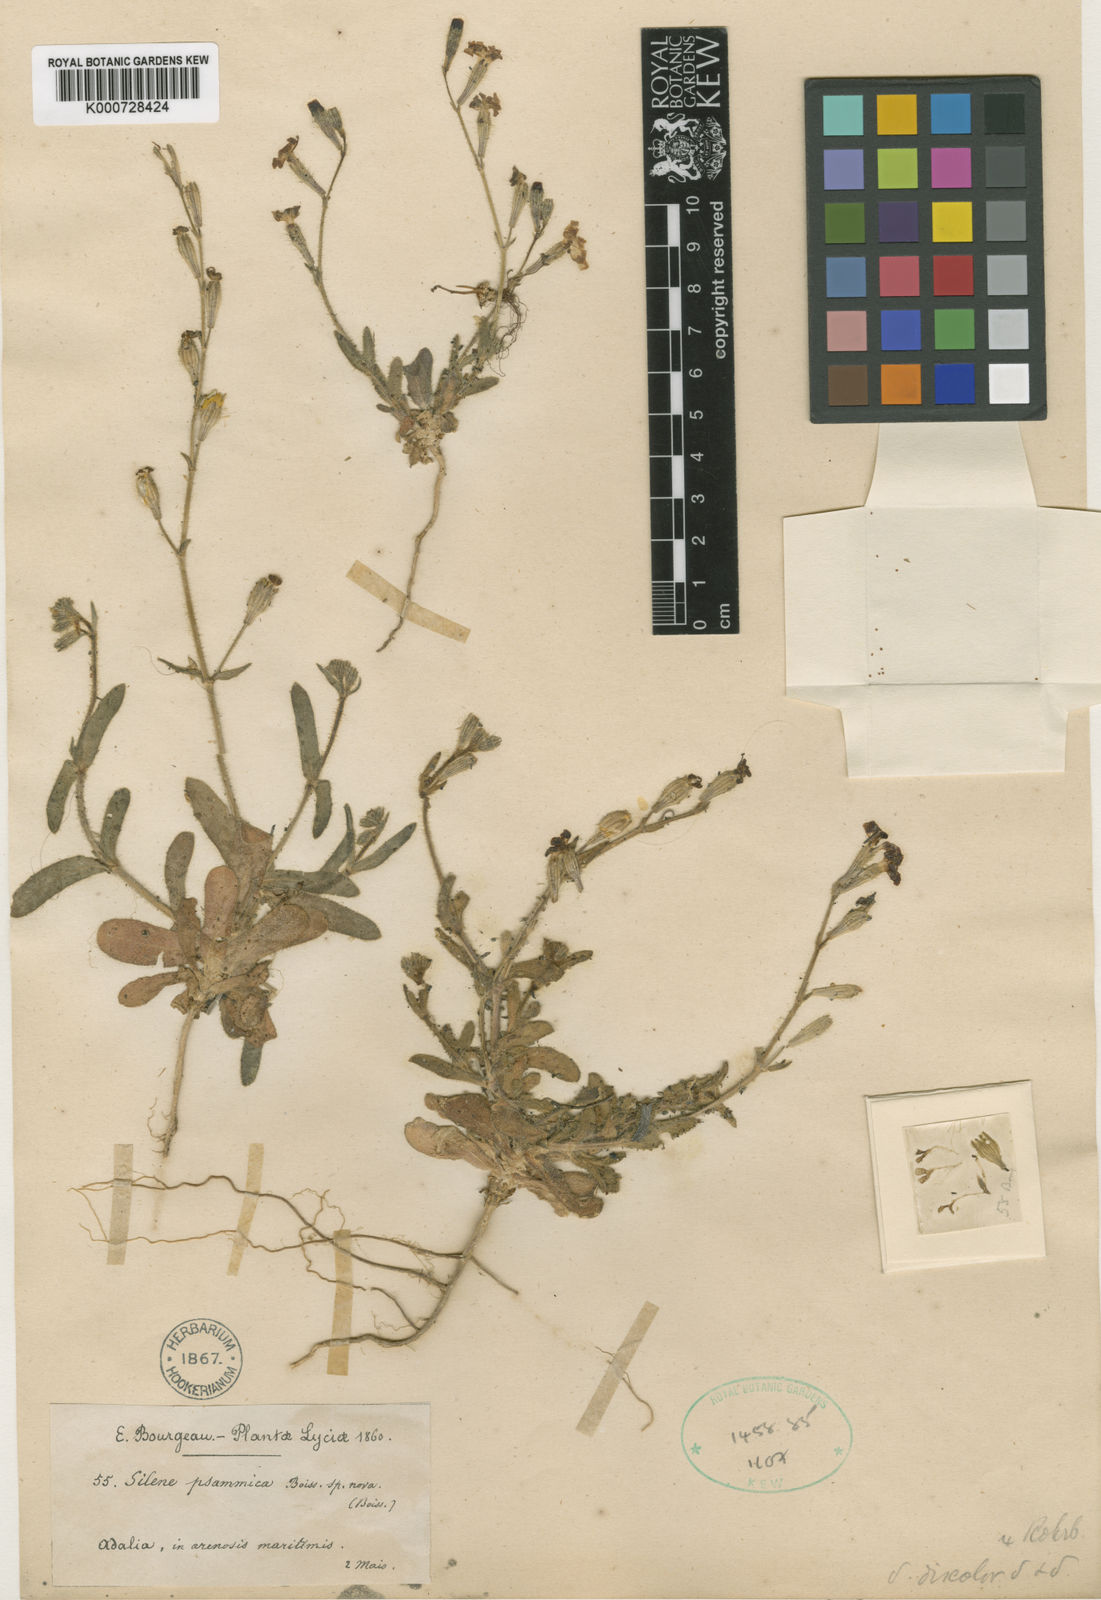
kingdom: Plantae
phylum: Tracheophyta
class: Magnoliopsida
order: Caryophyllales
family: Caryophyllaceae
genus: Silene
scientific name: Silene discolor
